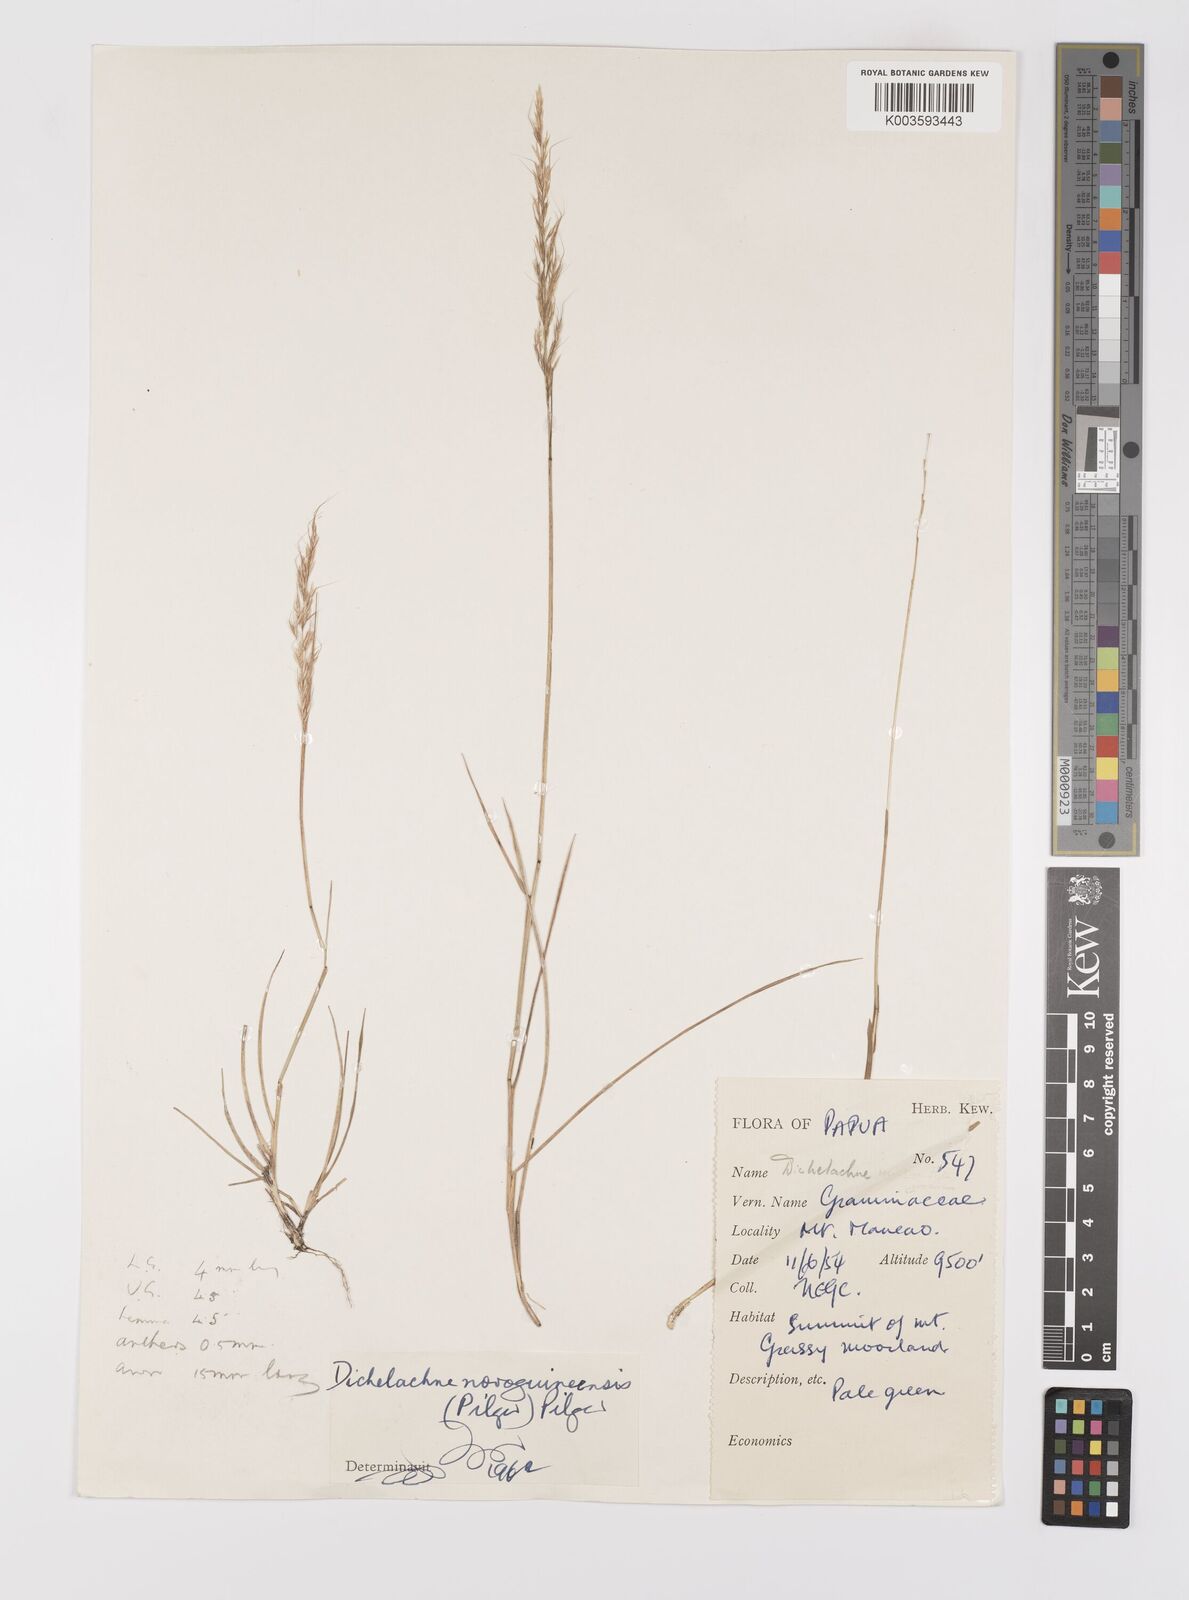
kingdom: Plantae
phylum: Tracheophyta
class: Liliopsida
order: Poales
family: Poaceae
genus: Dichelachne
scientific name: Dichelachne rara
